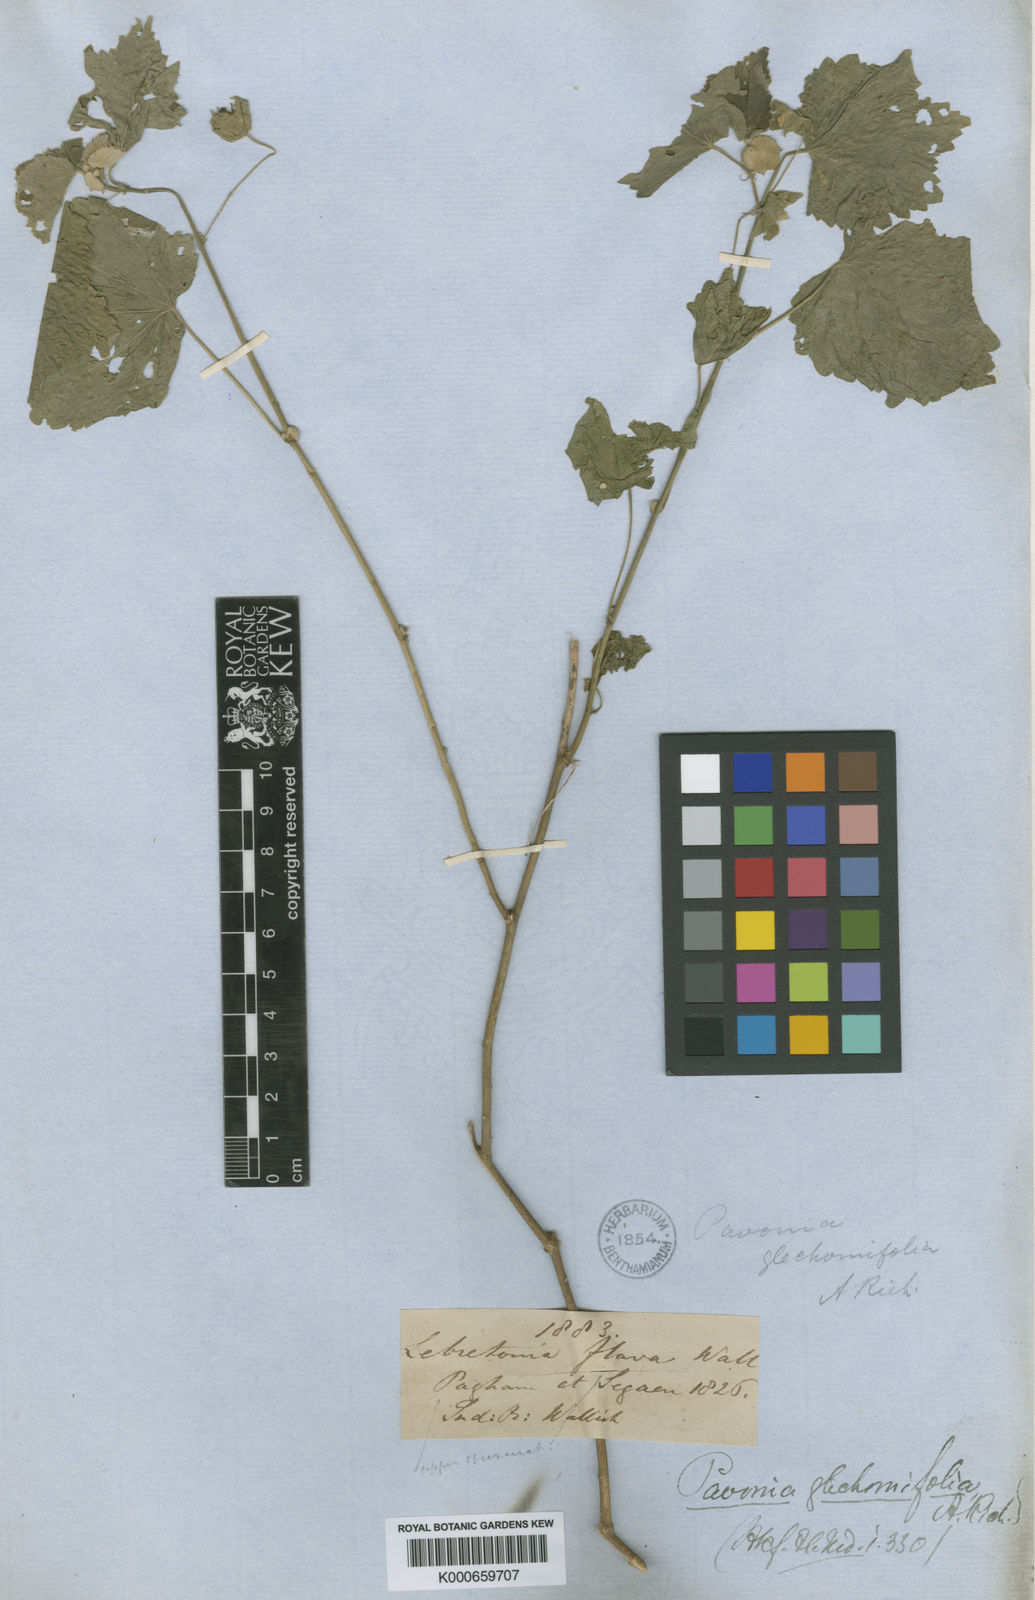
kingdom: Plantae
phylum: Tracheophyta
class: Magnoliopsida
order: Malvales
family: Malvaceae
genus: Pavonia
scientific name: Pavonia cancellata
